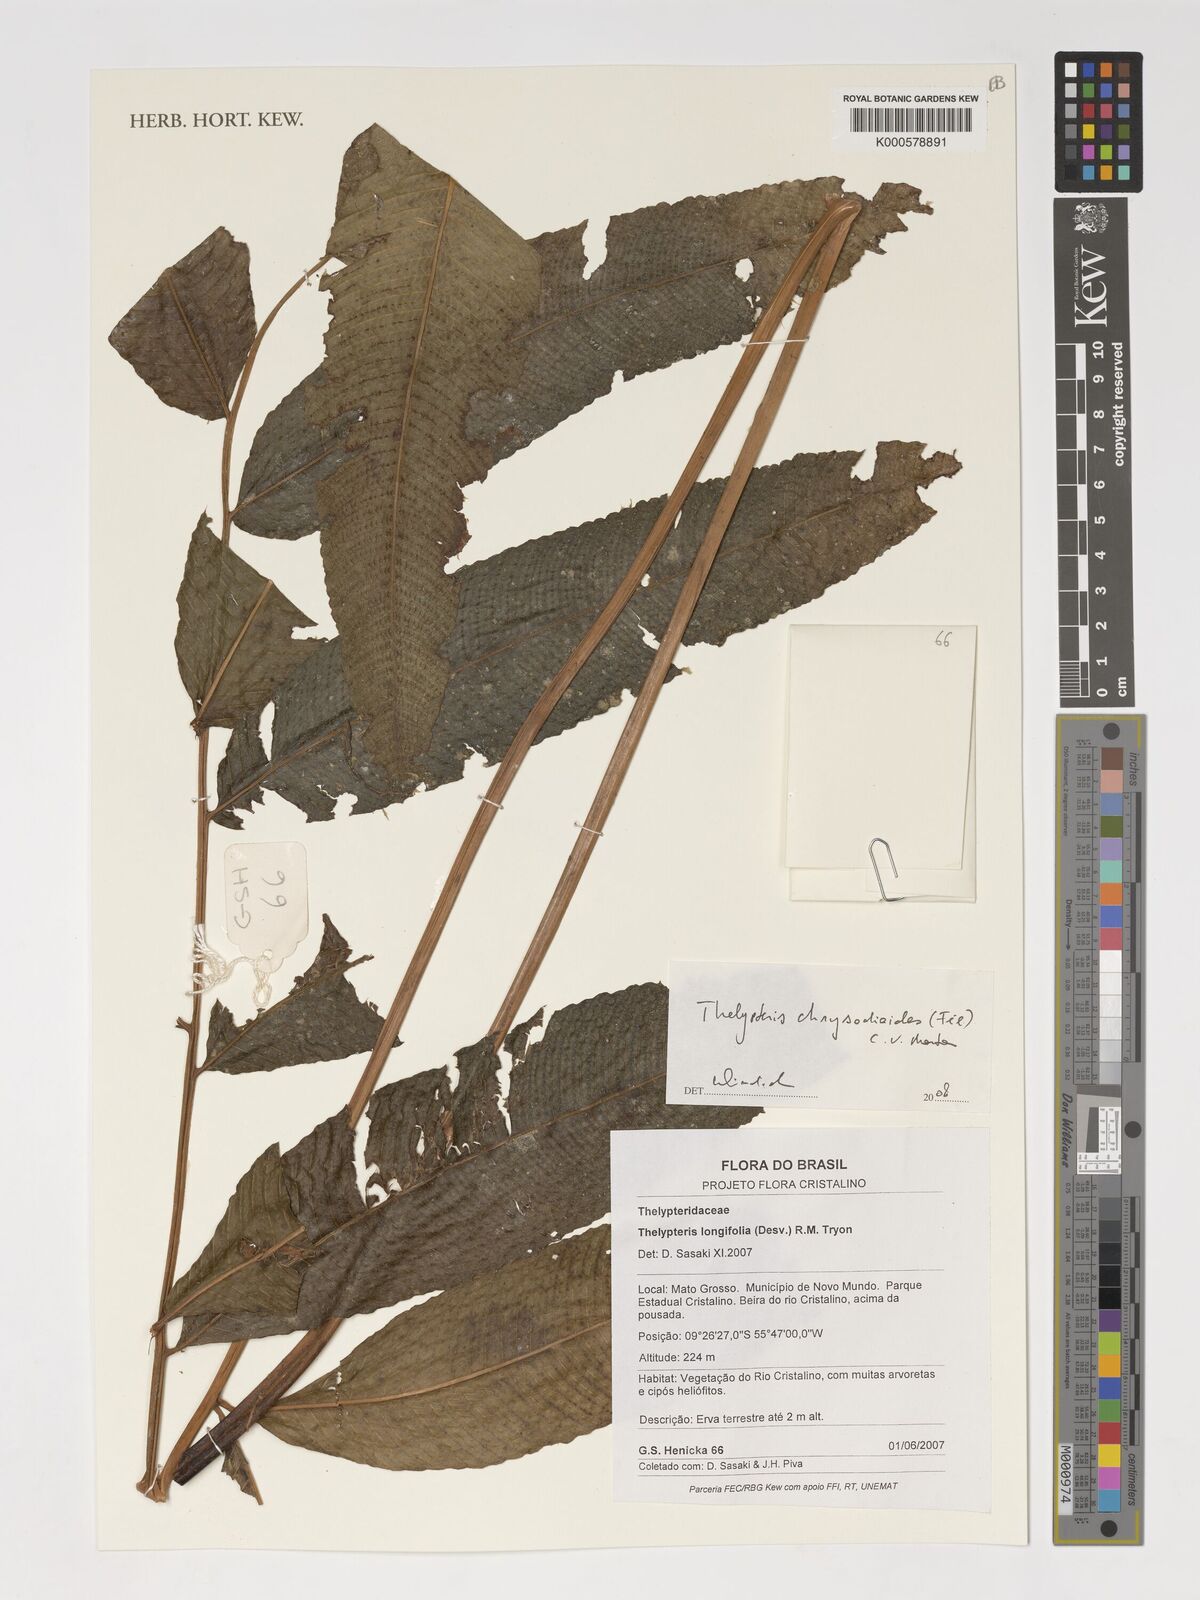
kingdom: Plantae
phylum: Tracheophyta
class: Polypodiopsida
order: Polypodiales
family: Thelypteridaceae
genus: Meniscium
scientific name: Meniscium chrysodioides
